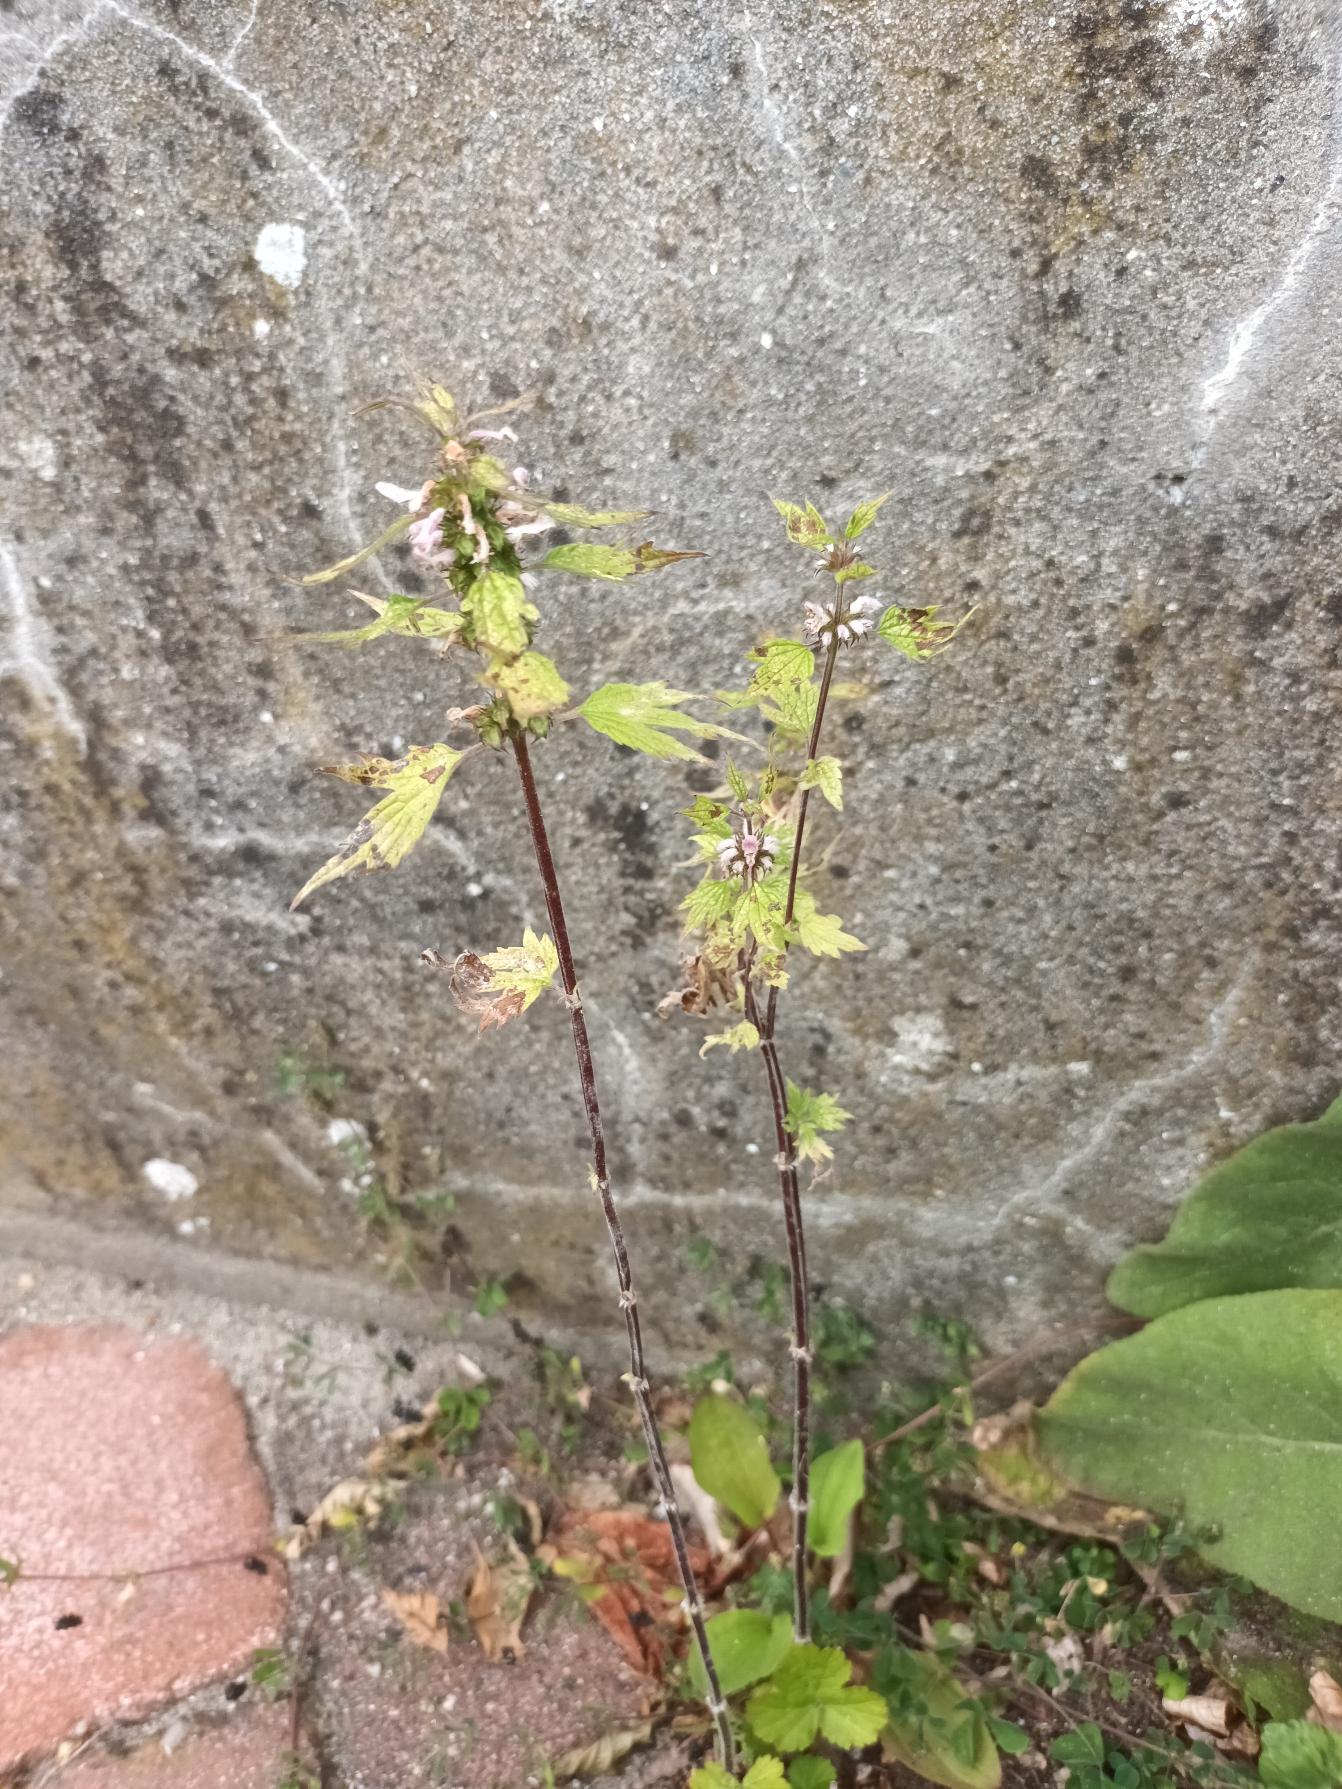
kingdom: Plantae
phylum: Tracheophyta
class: Magnoliopsida
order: Lamiales
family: Lamiaceae
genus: Leonurus
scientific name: Leonurus cardiaca
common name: Hjertespand
